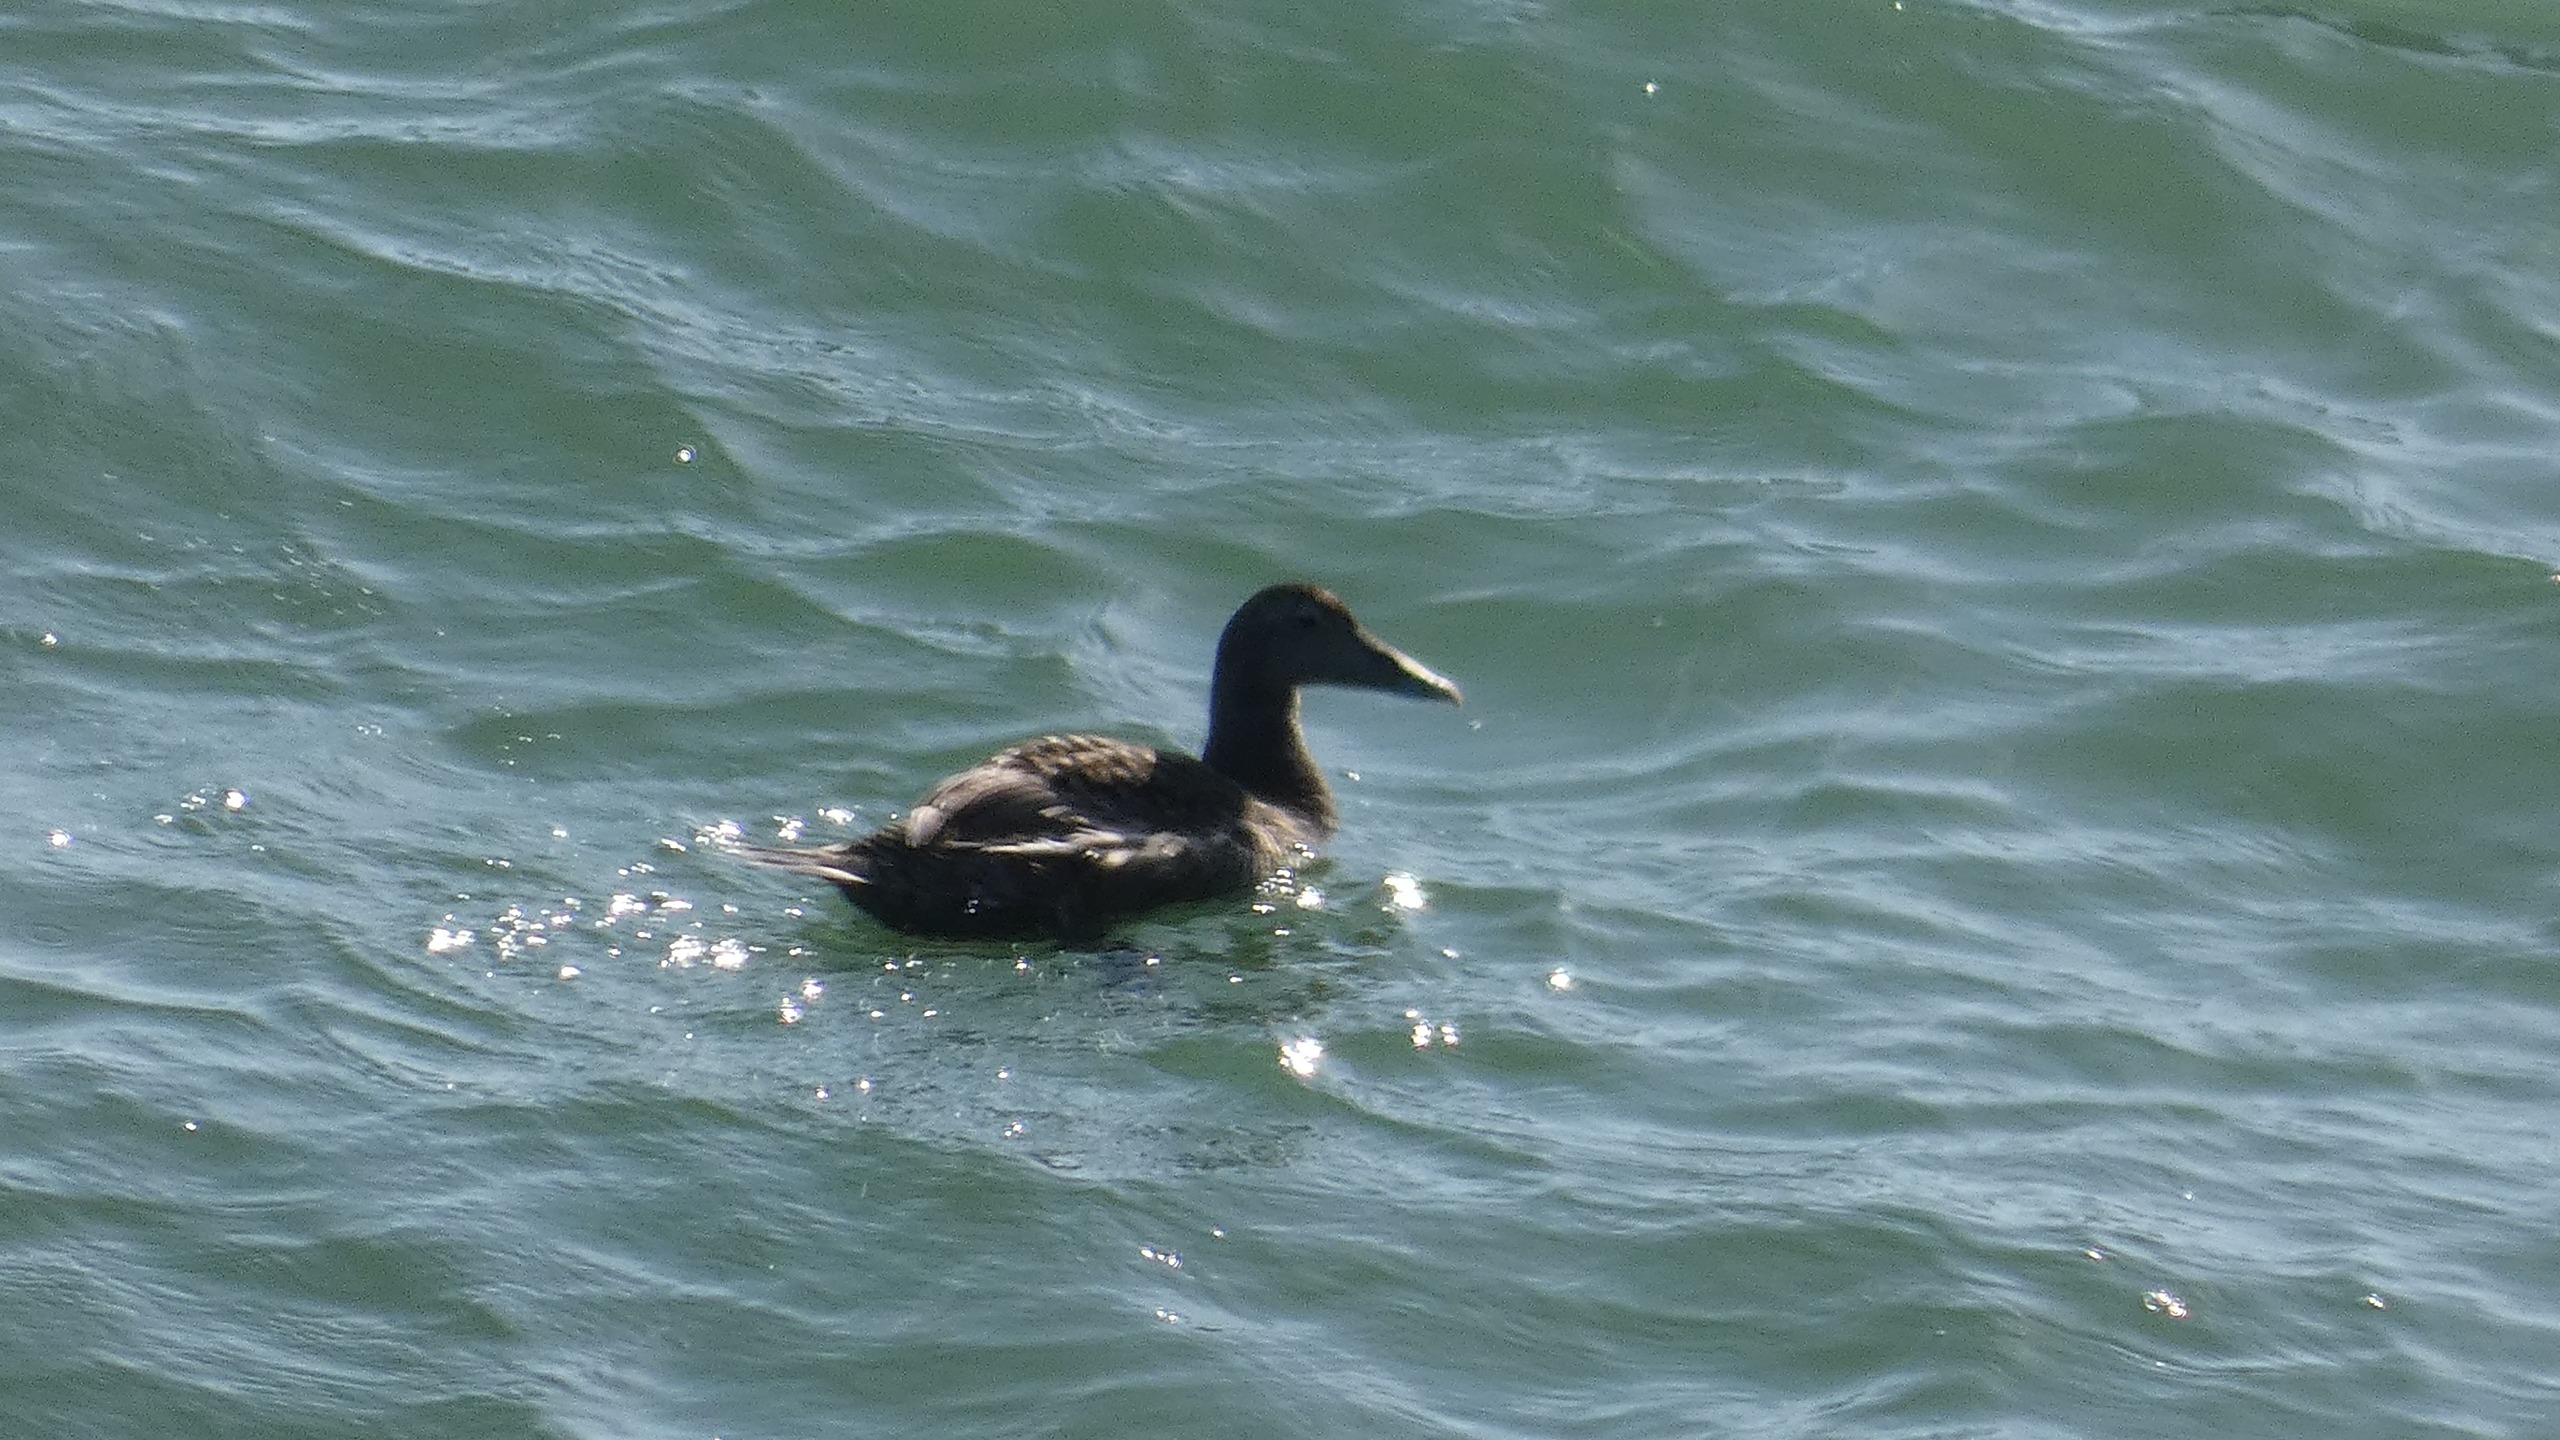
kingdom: Animalia
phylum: Chordata
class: Aves
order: Anseriformes
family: Anatidae
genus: Somateria
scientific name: Somateria mollissima
